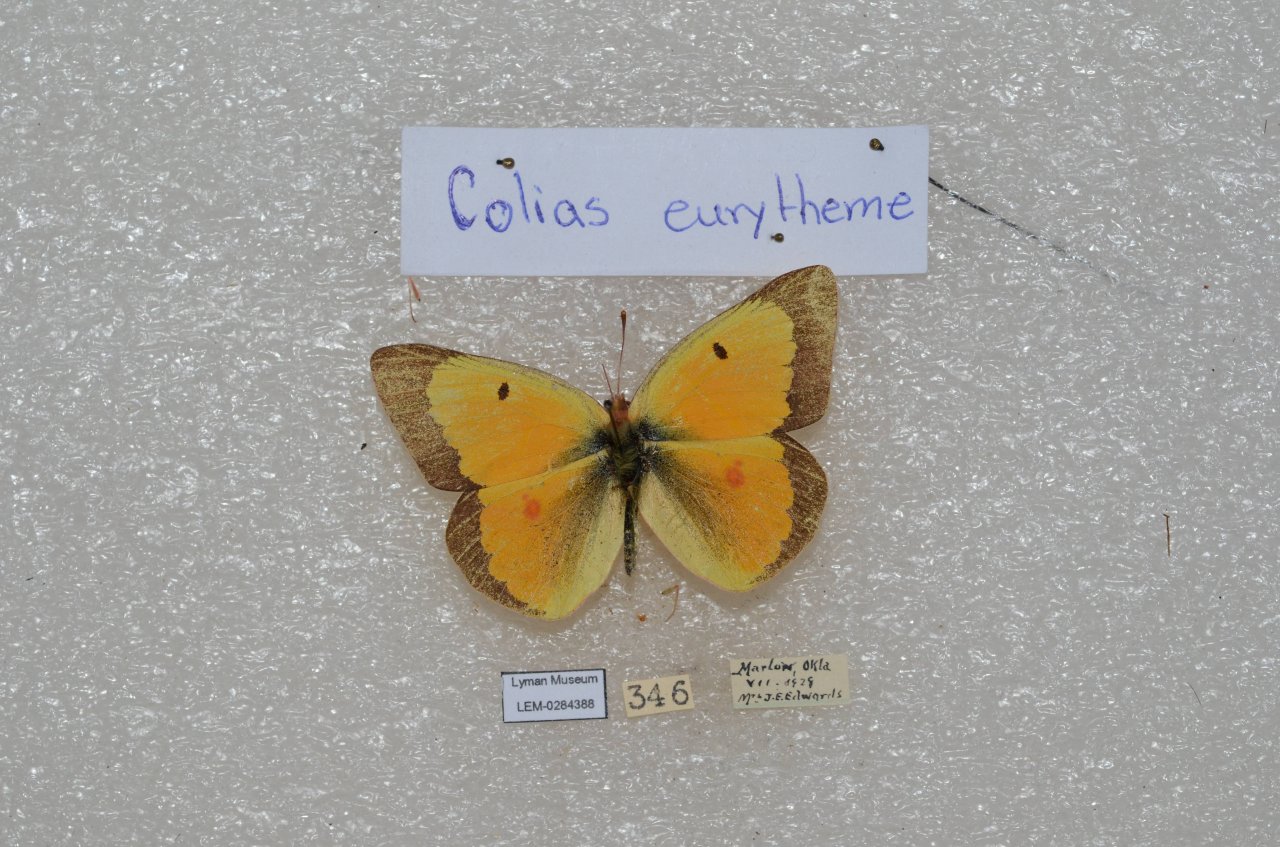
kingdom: Animalia
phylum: Arthropoda
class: Insecta
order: Lepidoptera
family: Pieridae
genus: Colias
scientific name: Colias eurytheme
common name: Orange Sulphur
